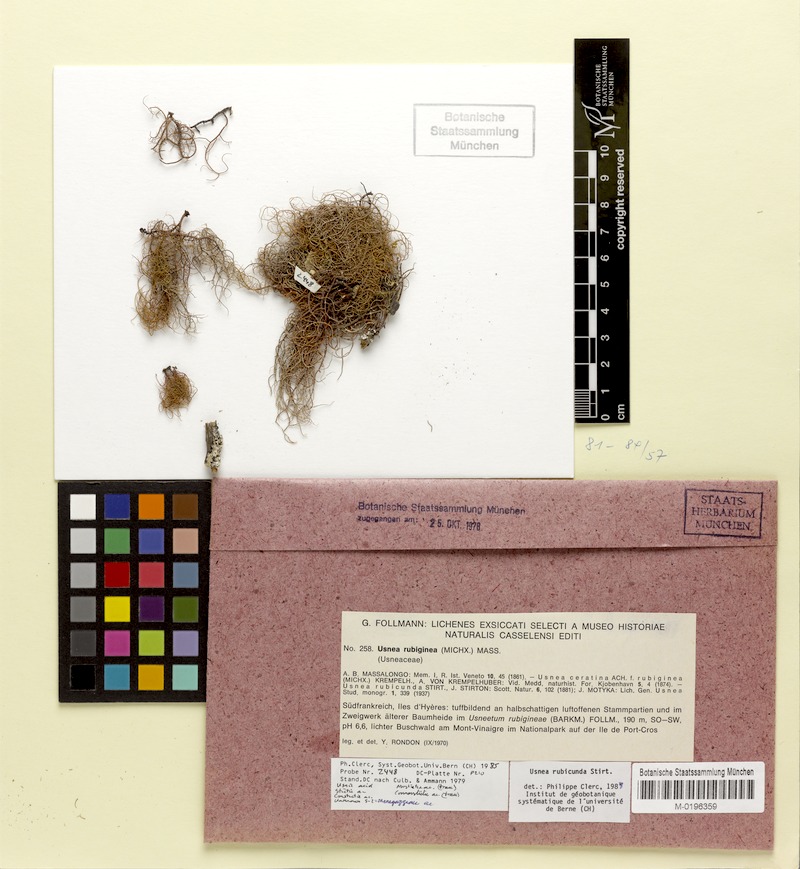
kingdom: Fungi
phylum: Ascomycota
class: Lecanoromycetes
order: Lecanorales
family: Parmeliaceae
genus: Usnea
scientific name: Usnea rubicunda
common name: Red beard lichen
